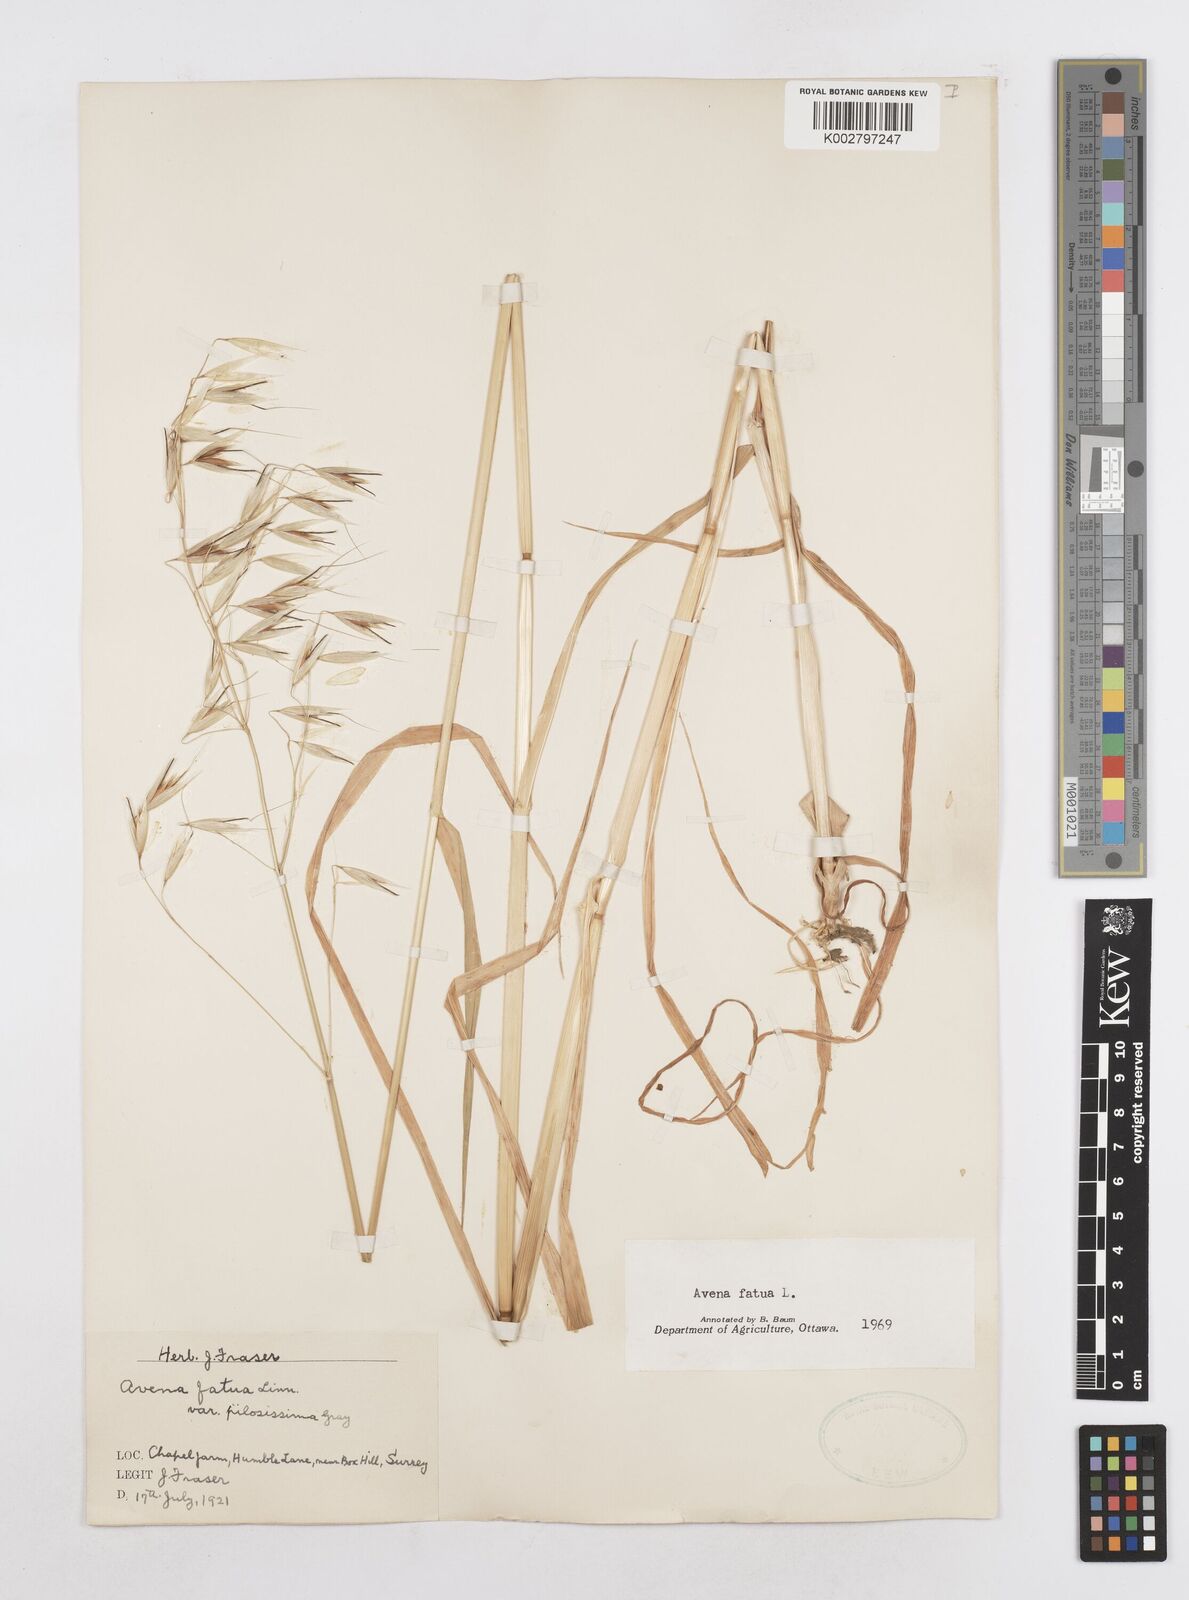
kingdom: Plantae
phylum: Tracheophyta
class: Liliopsida
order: Poales
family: Poaceae
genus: Avena
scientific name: Avena fatua
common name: Wild oat
